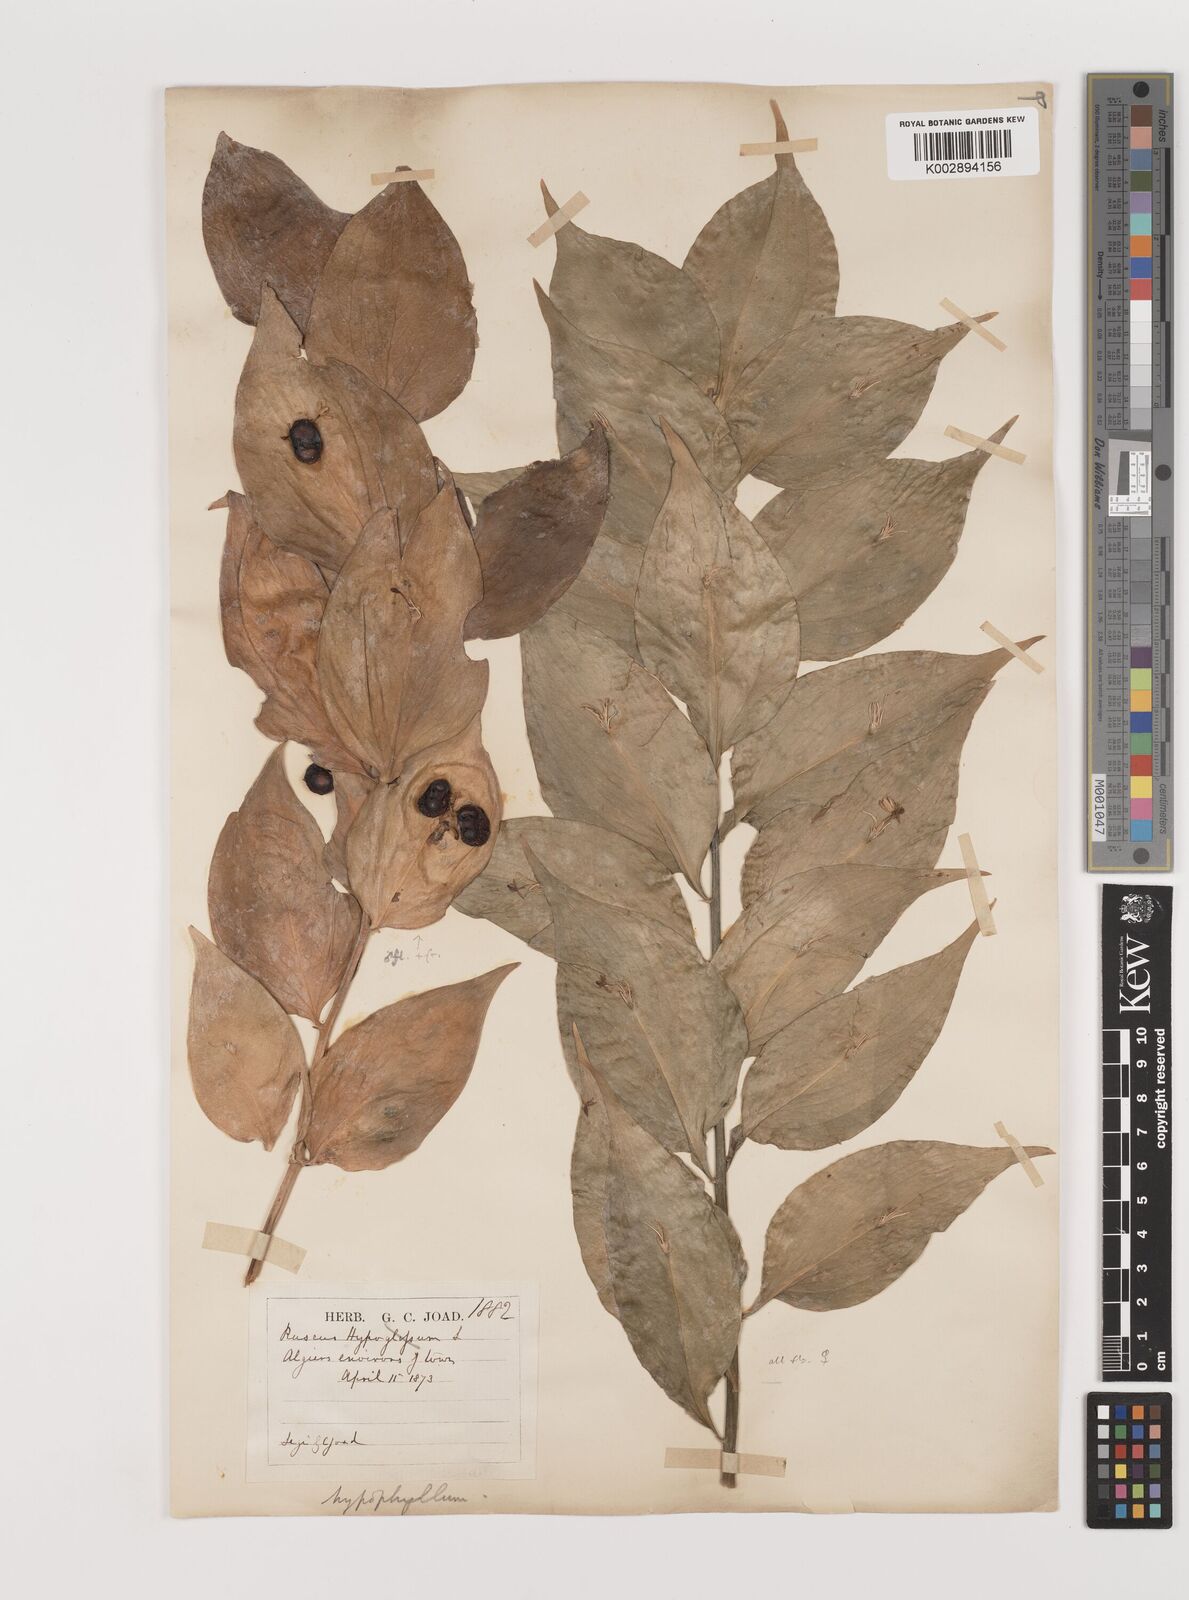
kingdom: Plantae
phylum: Tracheophyta
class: Liliopsida
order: Asparagales
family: Asparagaceae
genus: Ruscus
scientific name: Ruscus hypophyllum
